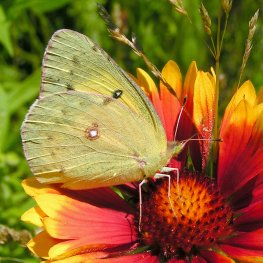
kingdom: Animalia
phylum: Arthropoda
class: Insecta
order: Lepidoptera
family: Pieridae
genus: Colias
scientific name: Colias eurytheme
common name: Orange Sulphur
